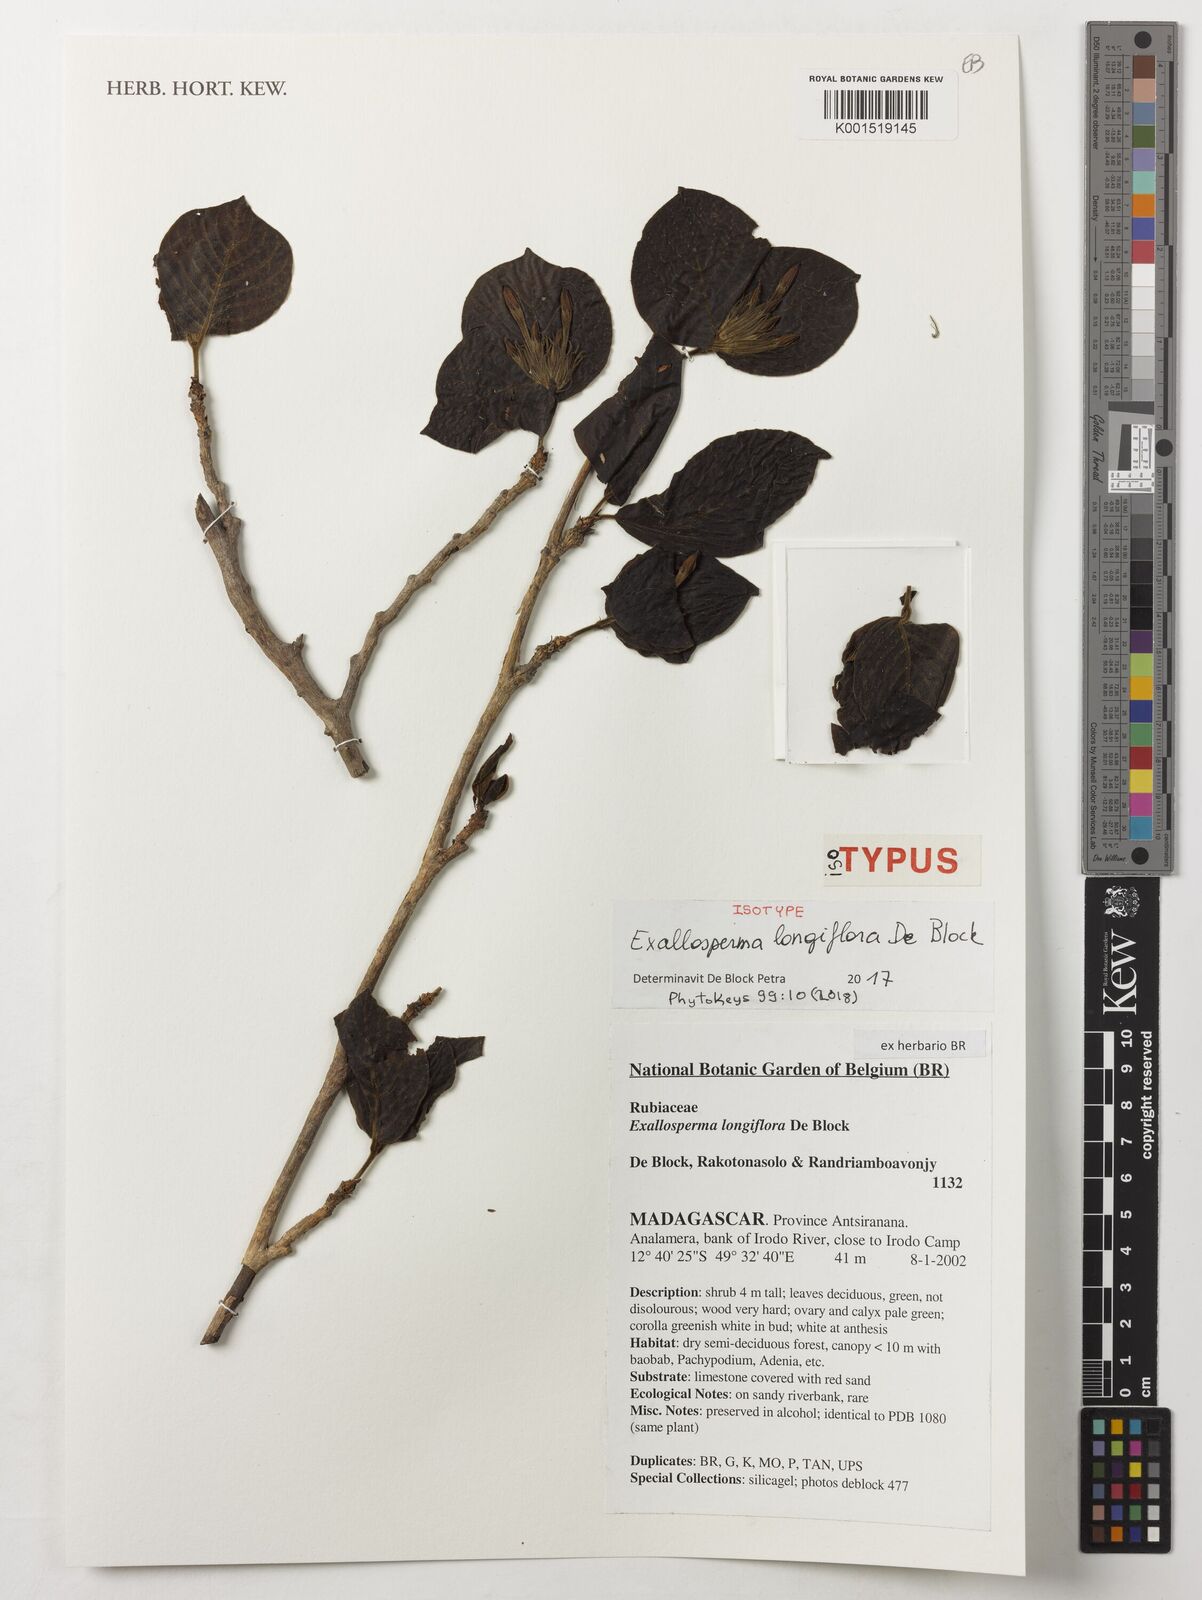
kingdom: Plantae
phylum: Tracheophyta
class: Magnoliopsida
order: Gentianales
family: Rubiaceae
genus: Exallosperma
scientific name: Exallosperma longiflora
